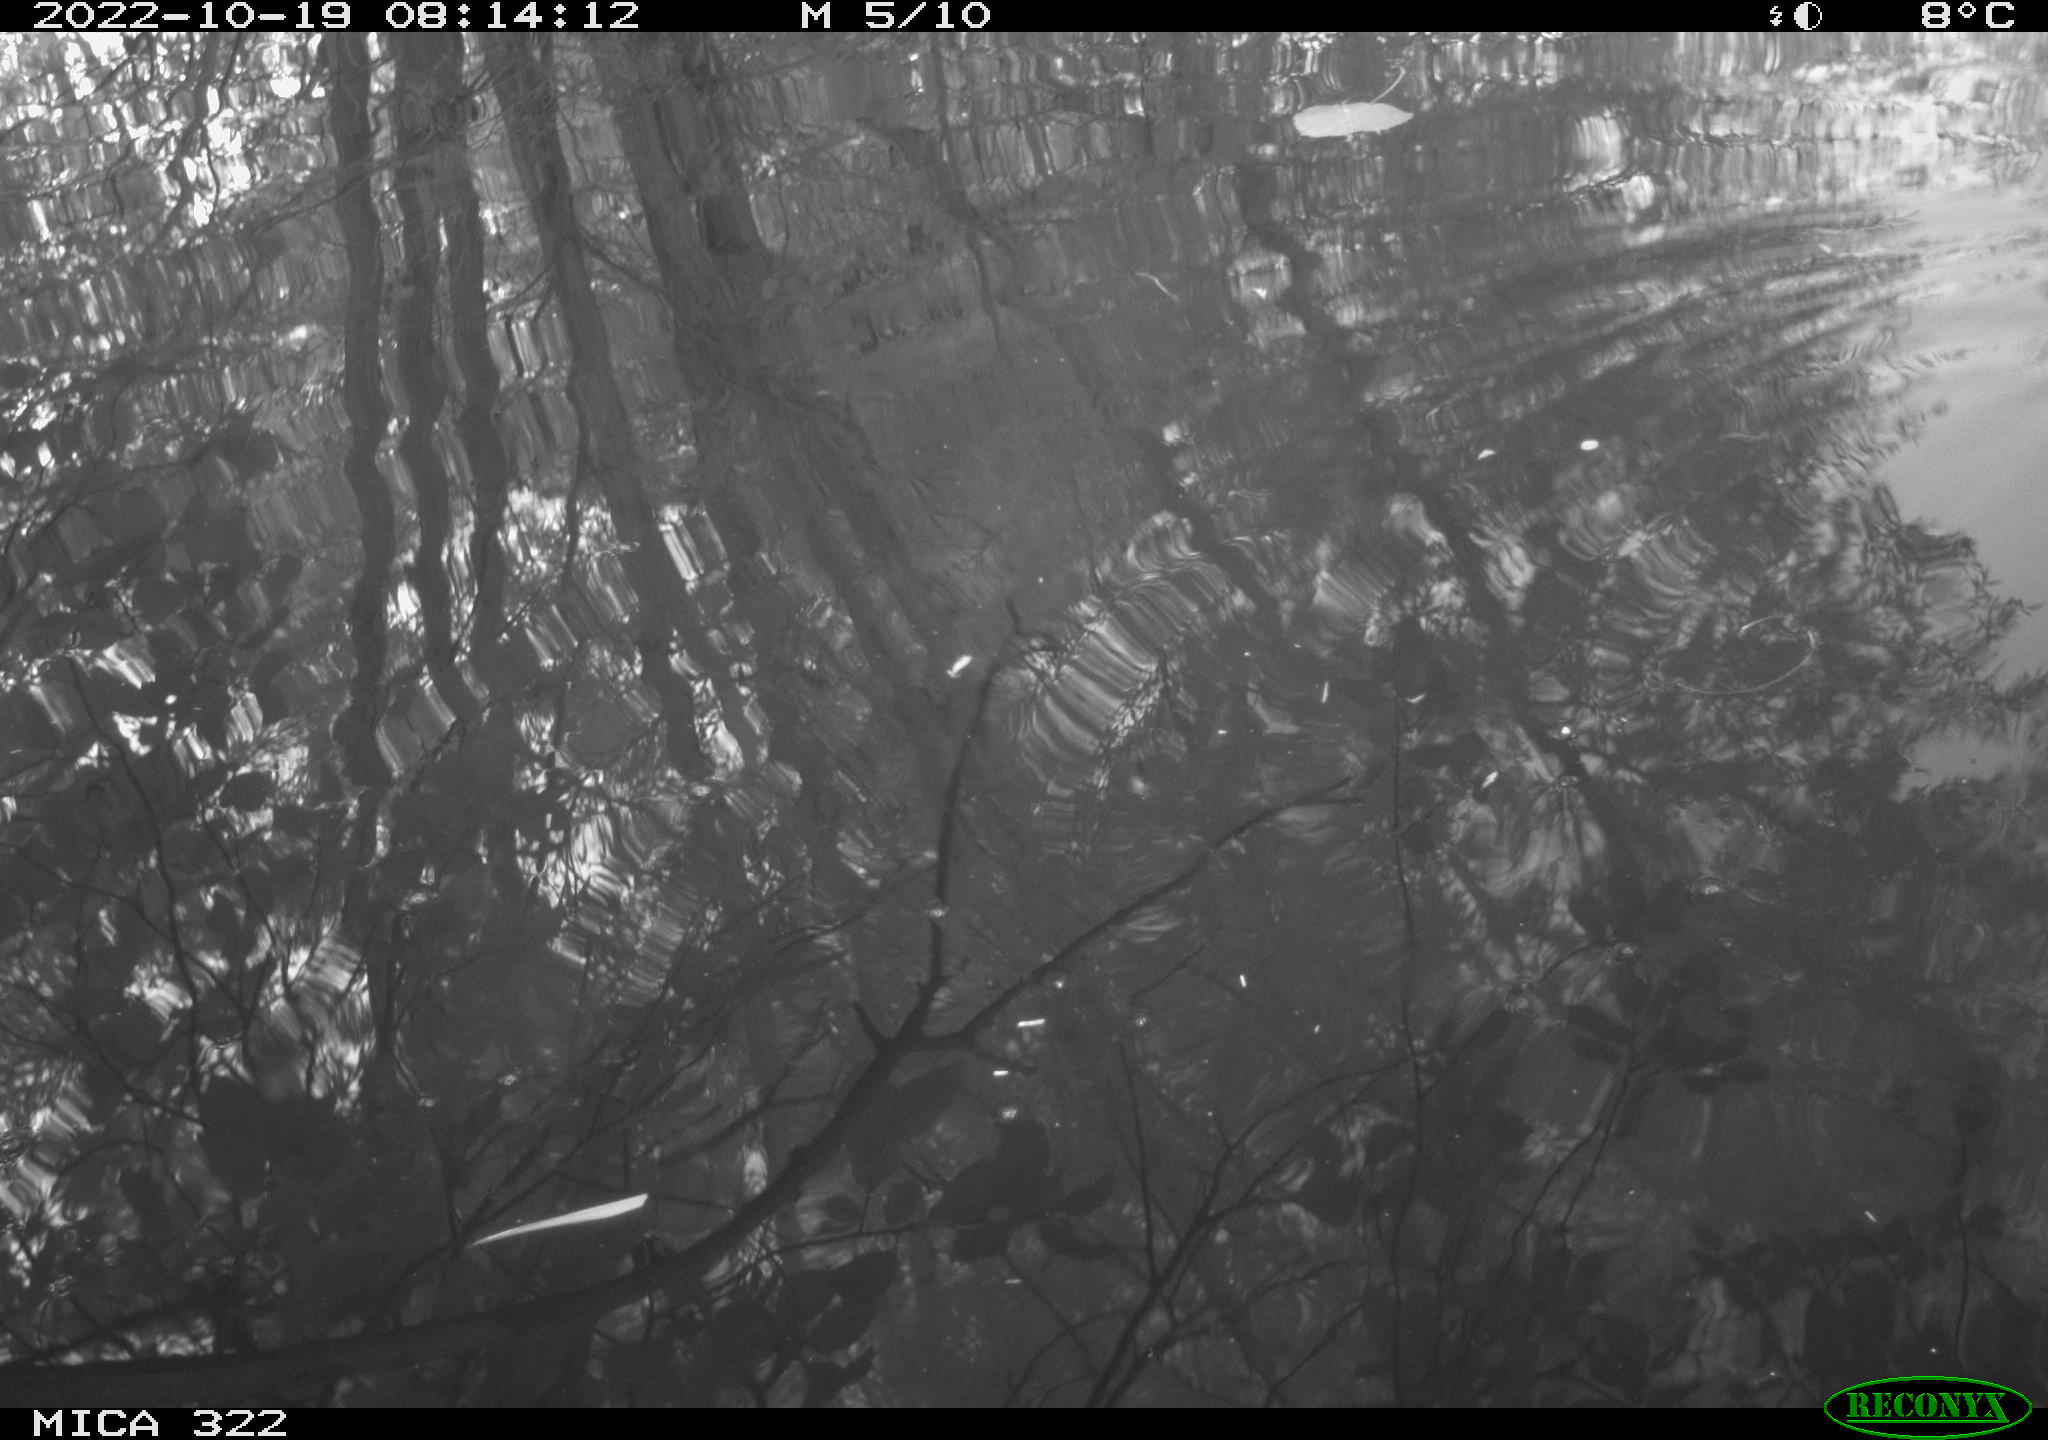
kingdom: Animalia
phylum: Chordata
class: Aves
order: Gruiformes
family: Rallidae
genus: Gallinula
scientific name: Gallinula chloropus
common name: Common moorhen
